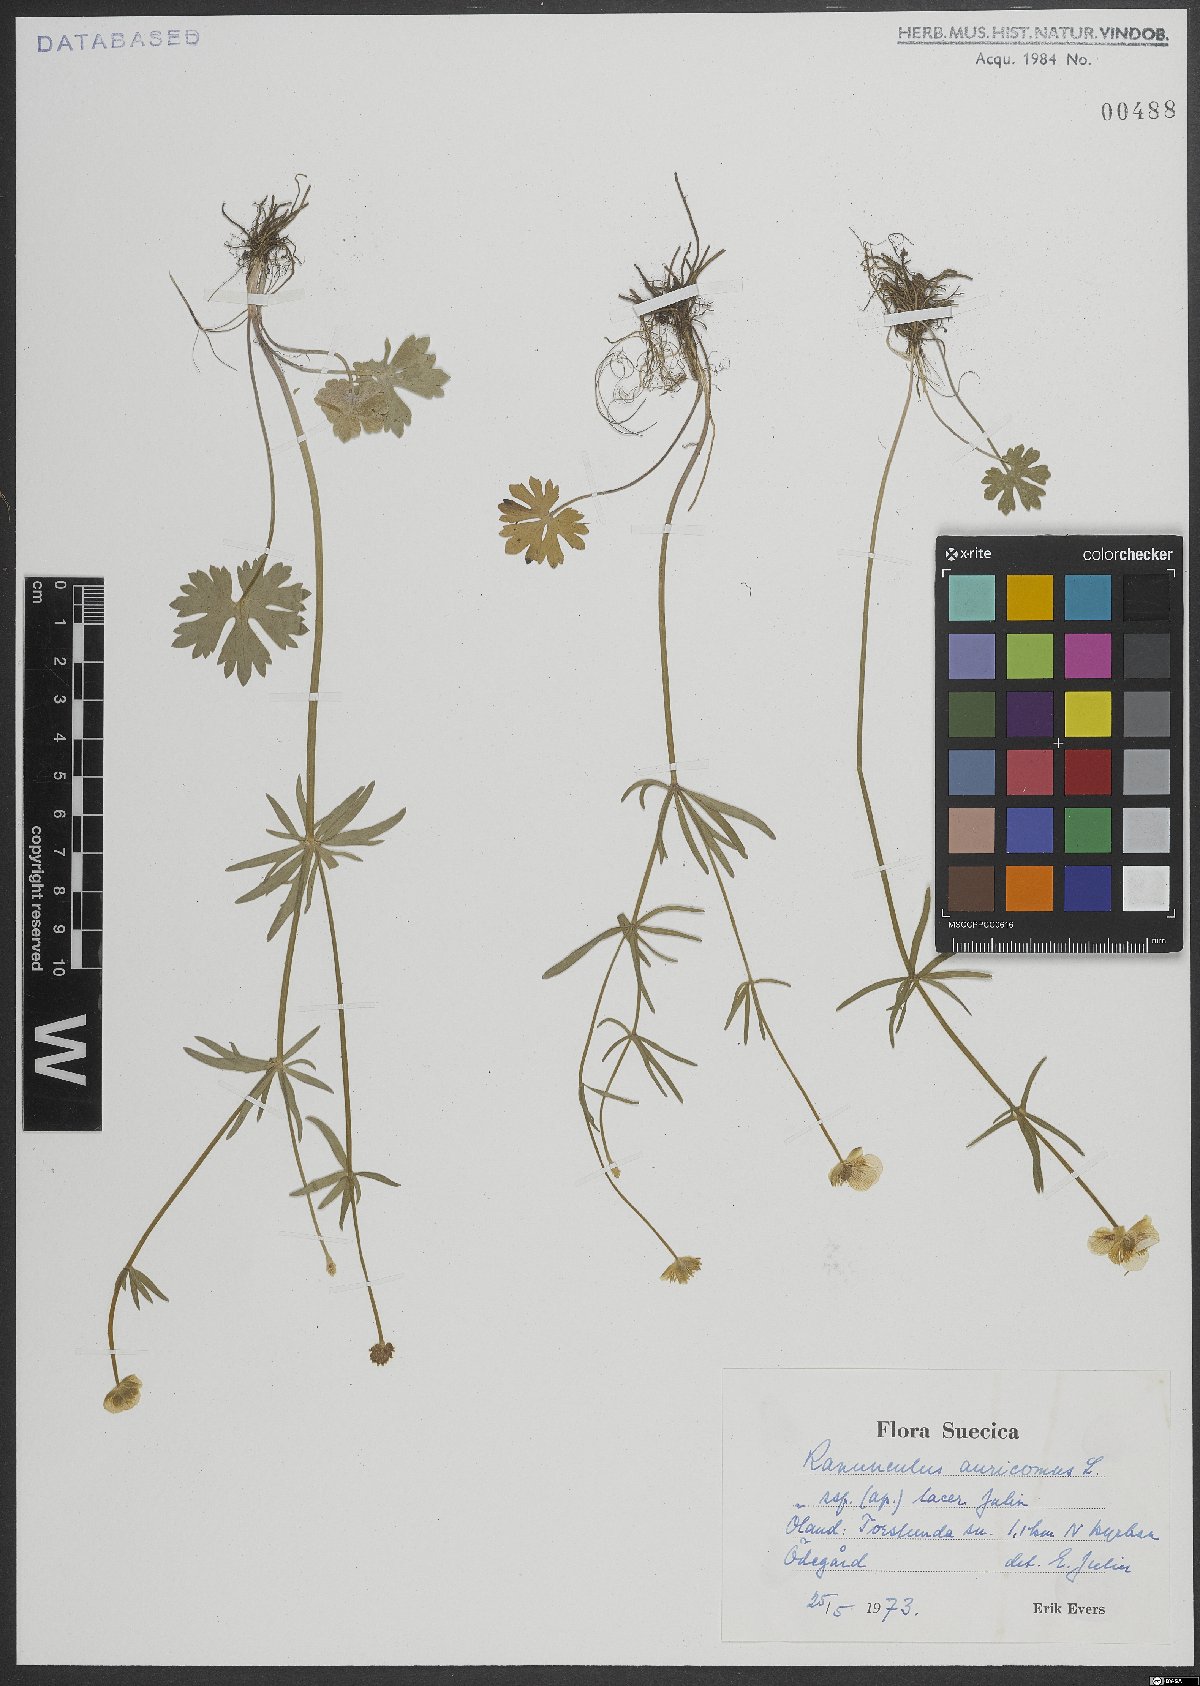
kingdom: Plantae
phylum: Tracheophyta
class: Magnoliopsida
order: Ranunculales
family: Ranunculaceae
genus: Ranunculus
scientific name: Ranunculus auricomus
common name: Goldilocks buttercup
